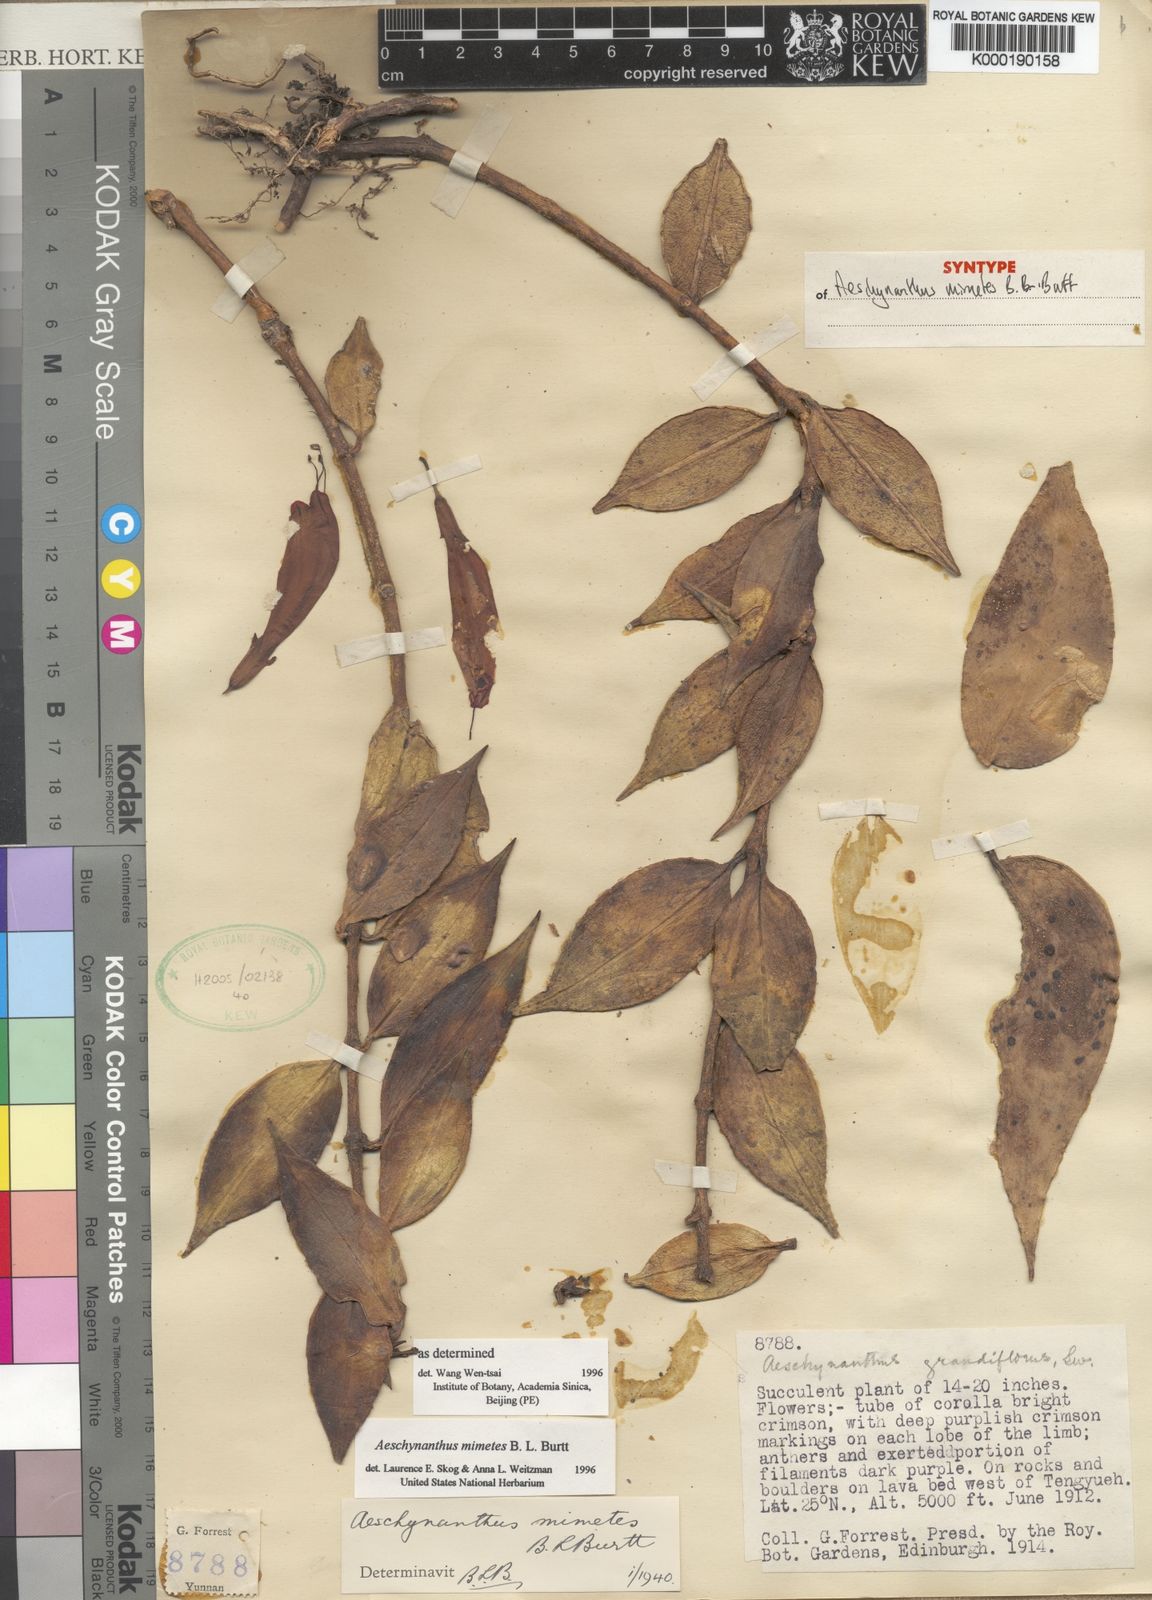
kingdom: Plantae
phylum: Tracheophyta
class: Magnoliopsida
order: Lamiales
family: Gesneriaceae
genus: Aeschynanthus
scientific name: Aeschynanthus parasiticus
